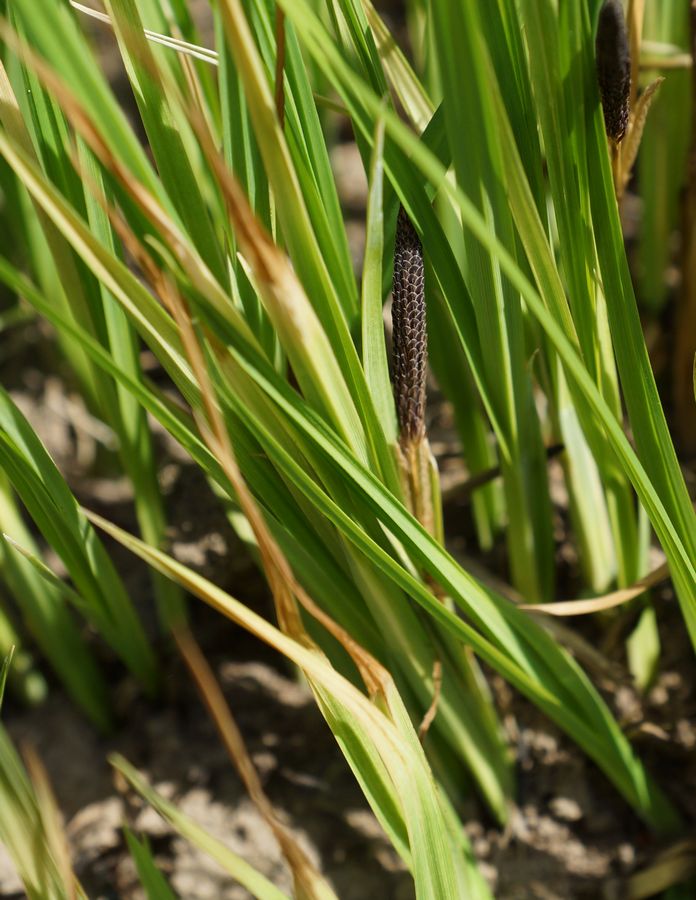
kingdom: Plantae
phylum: Tracheophyta
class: Liliopsida
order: Poales
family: Cyperaceae
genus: Carex
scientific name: Carex
